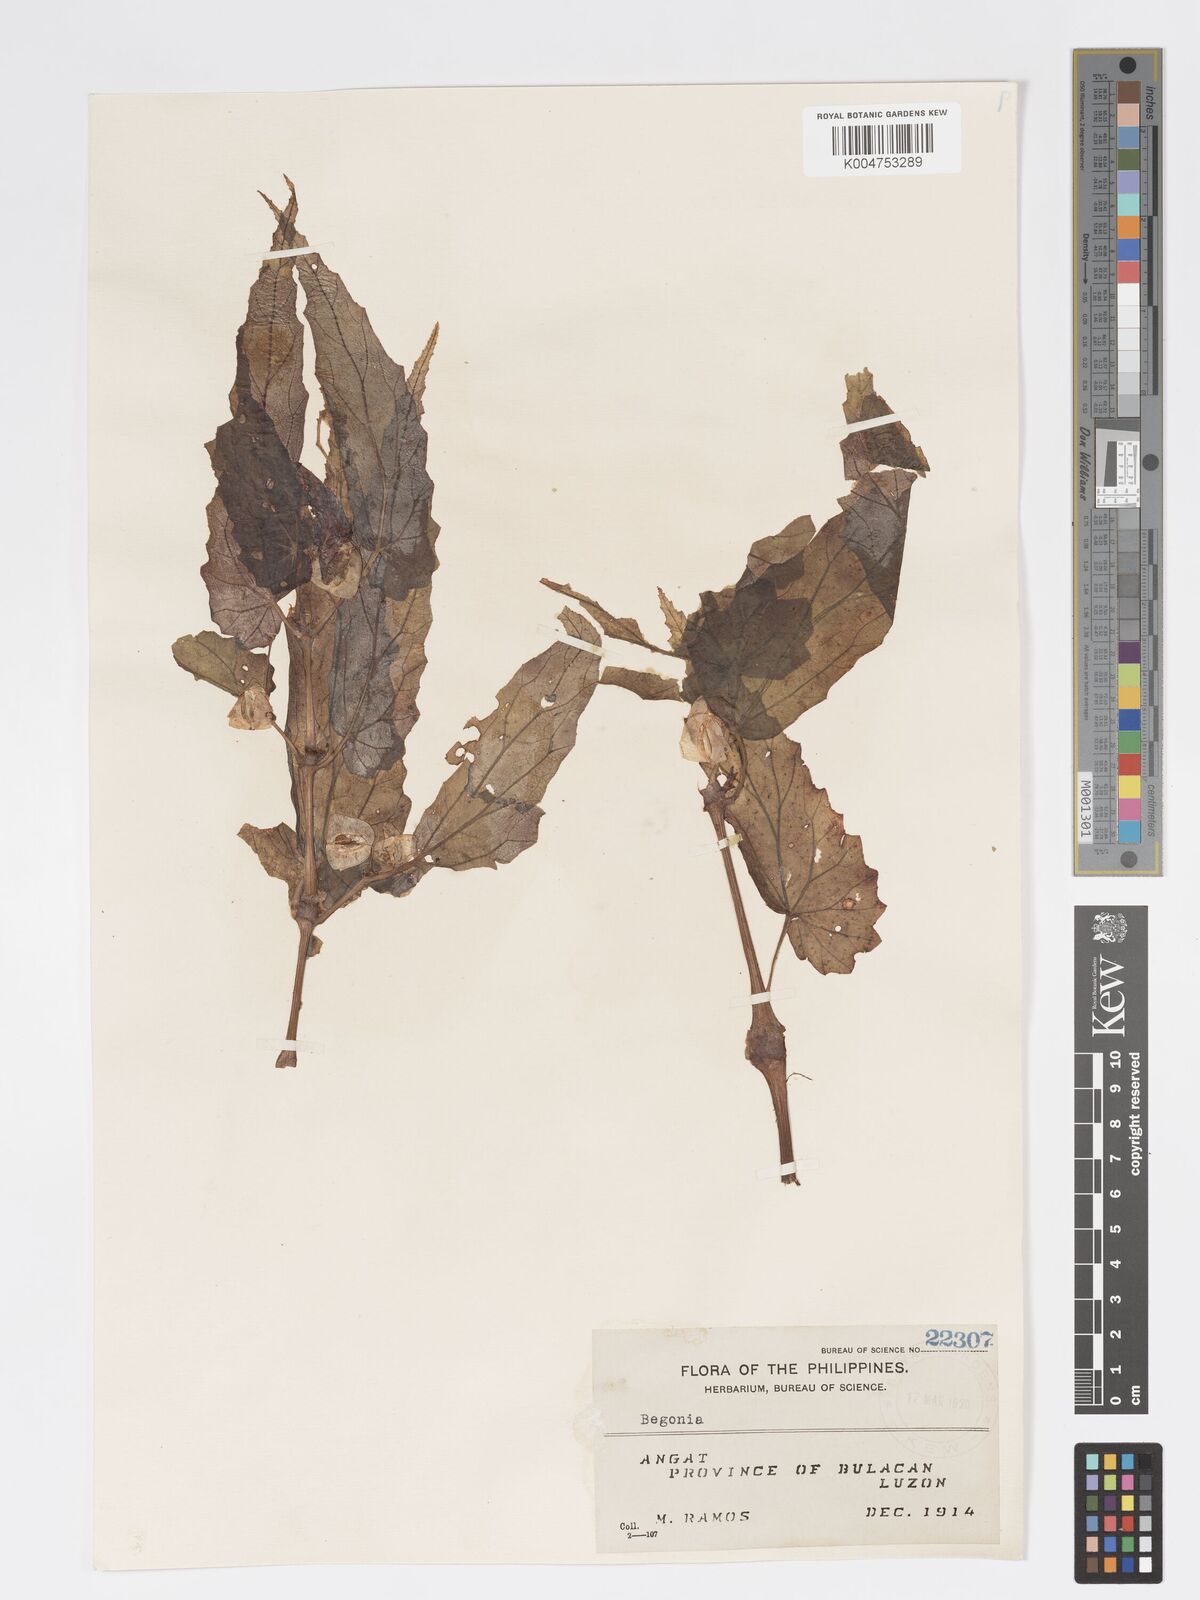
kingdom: Plantae
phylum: Tracheophyta
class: Magnoliopsida
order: Cucurbitales
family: Begoniaceae
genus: Begonia
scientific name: Begonia contracta
